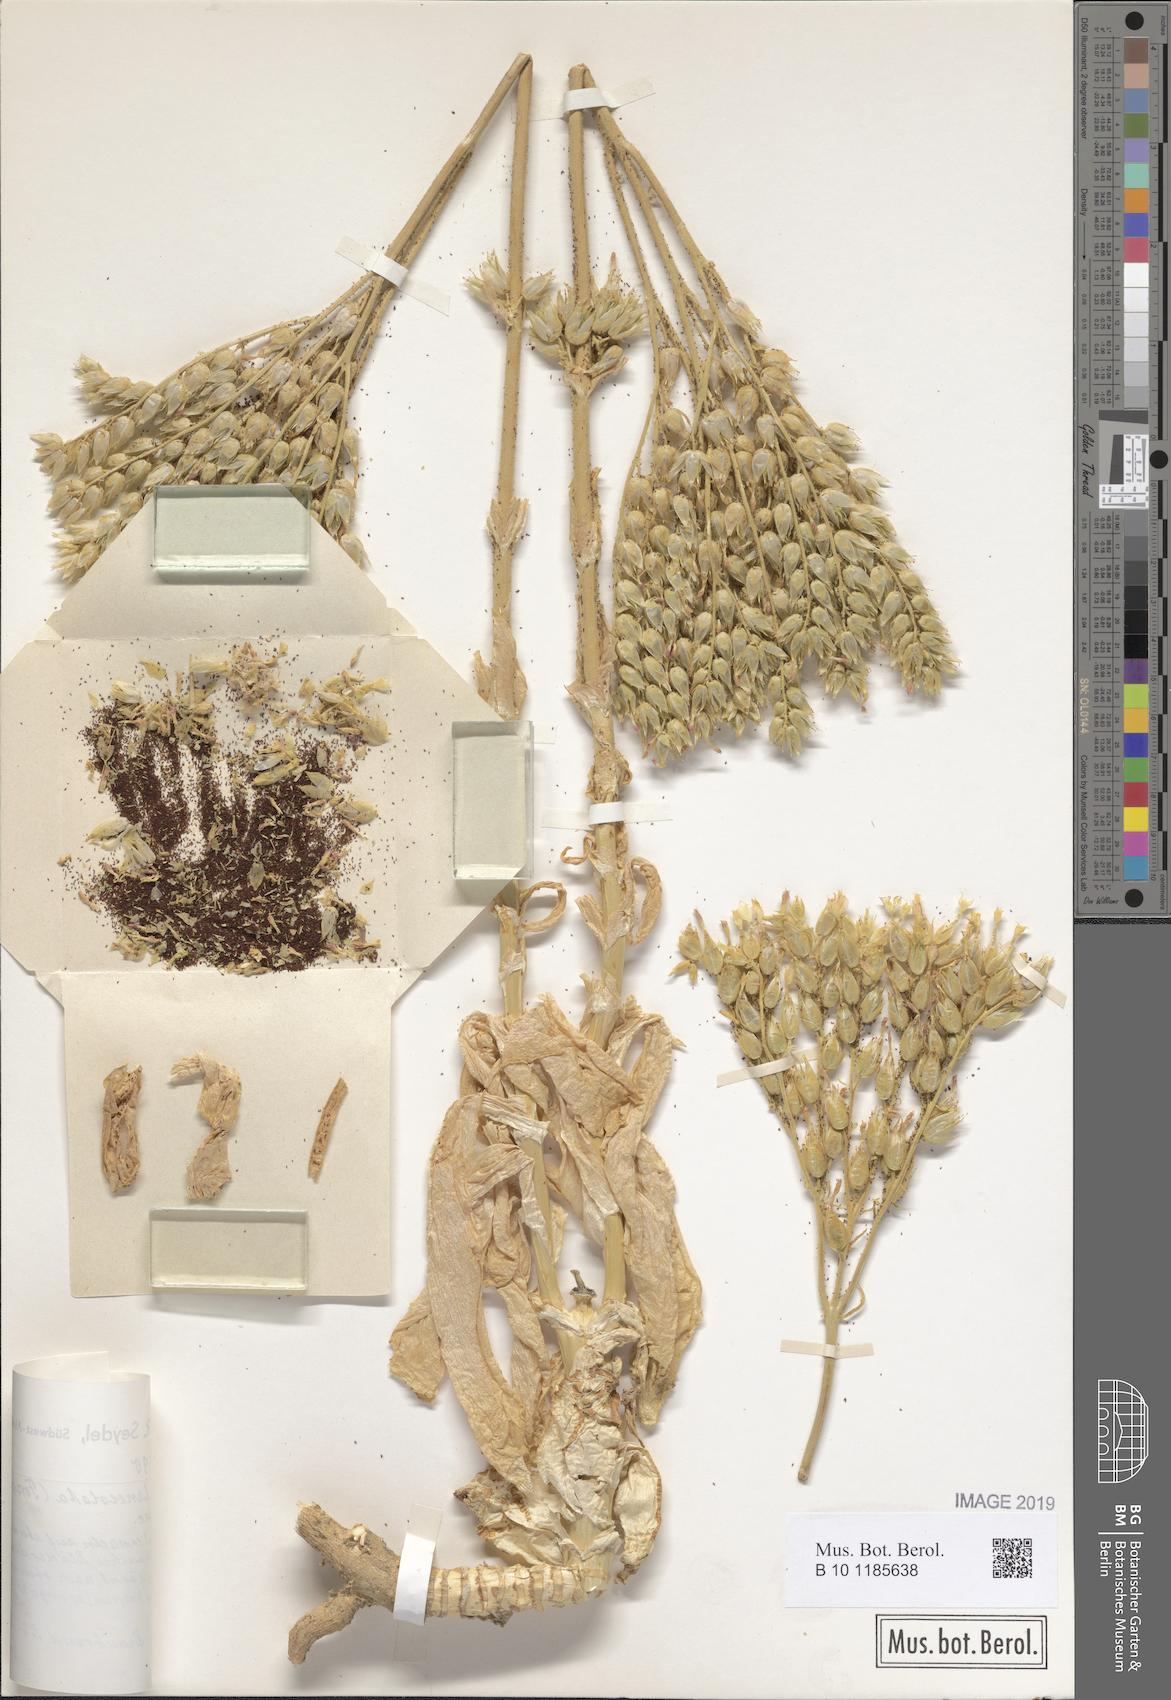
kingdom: Plantae
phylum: Tracheophyta
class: Magnoliopsida
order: Saxifragales
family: Crassulaceae
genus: Kalanchoe
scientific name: Kalanchoe lanceolata
